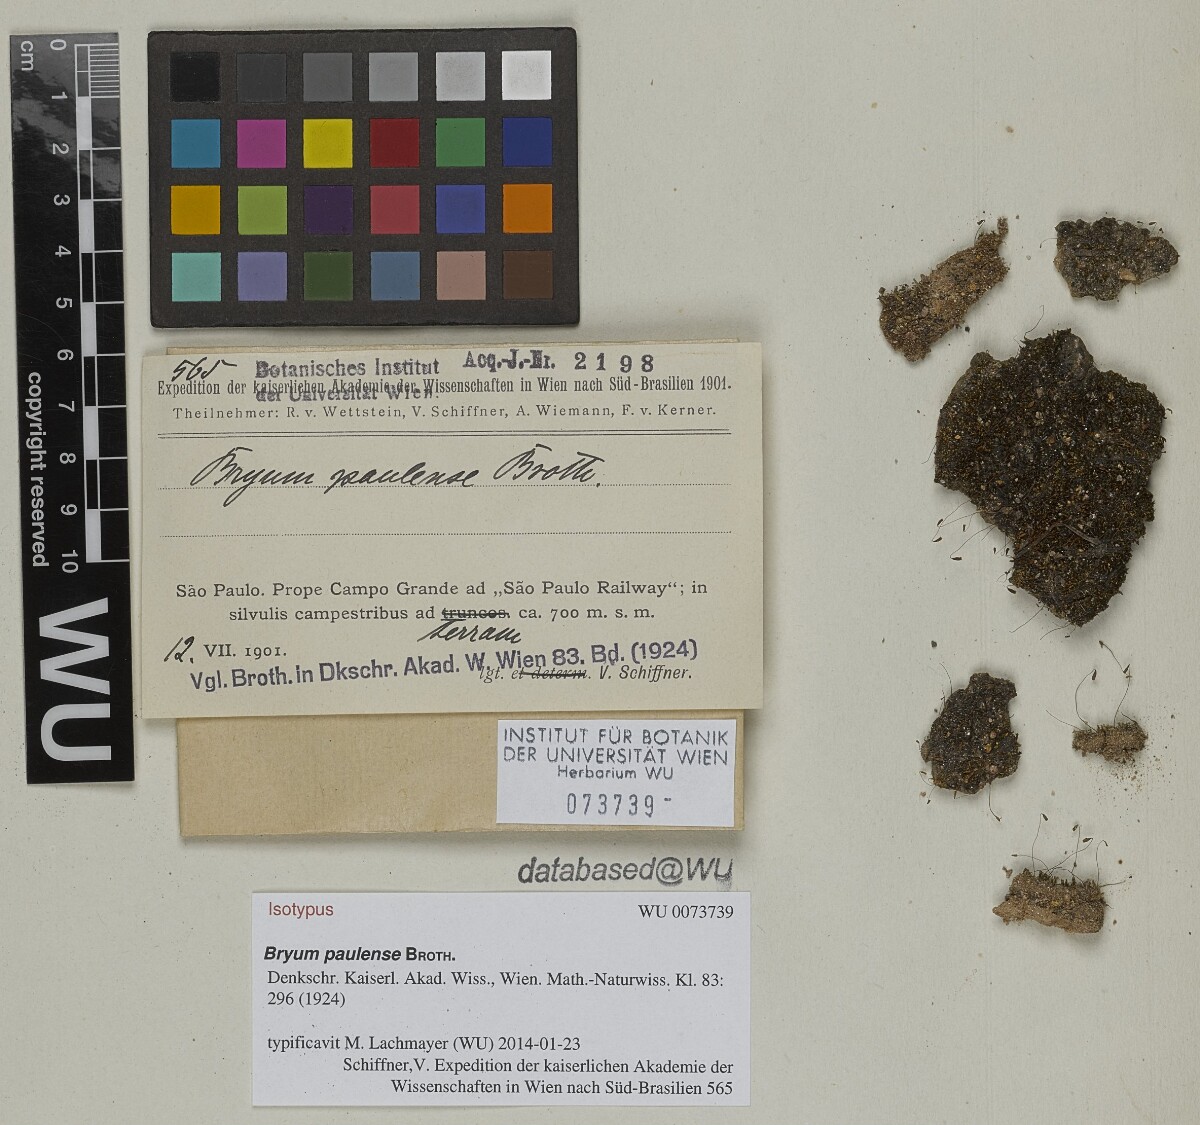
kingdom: Plantae
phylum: Bryophyta
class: Bryopsida
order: Bryales
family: Bryaceae
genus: Gemmabryum
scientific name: Gemmabryum apiculatum
